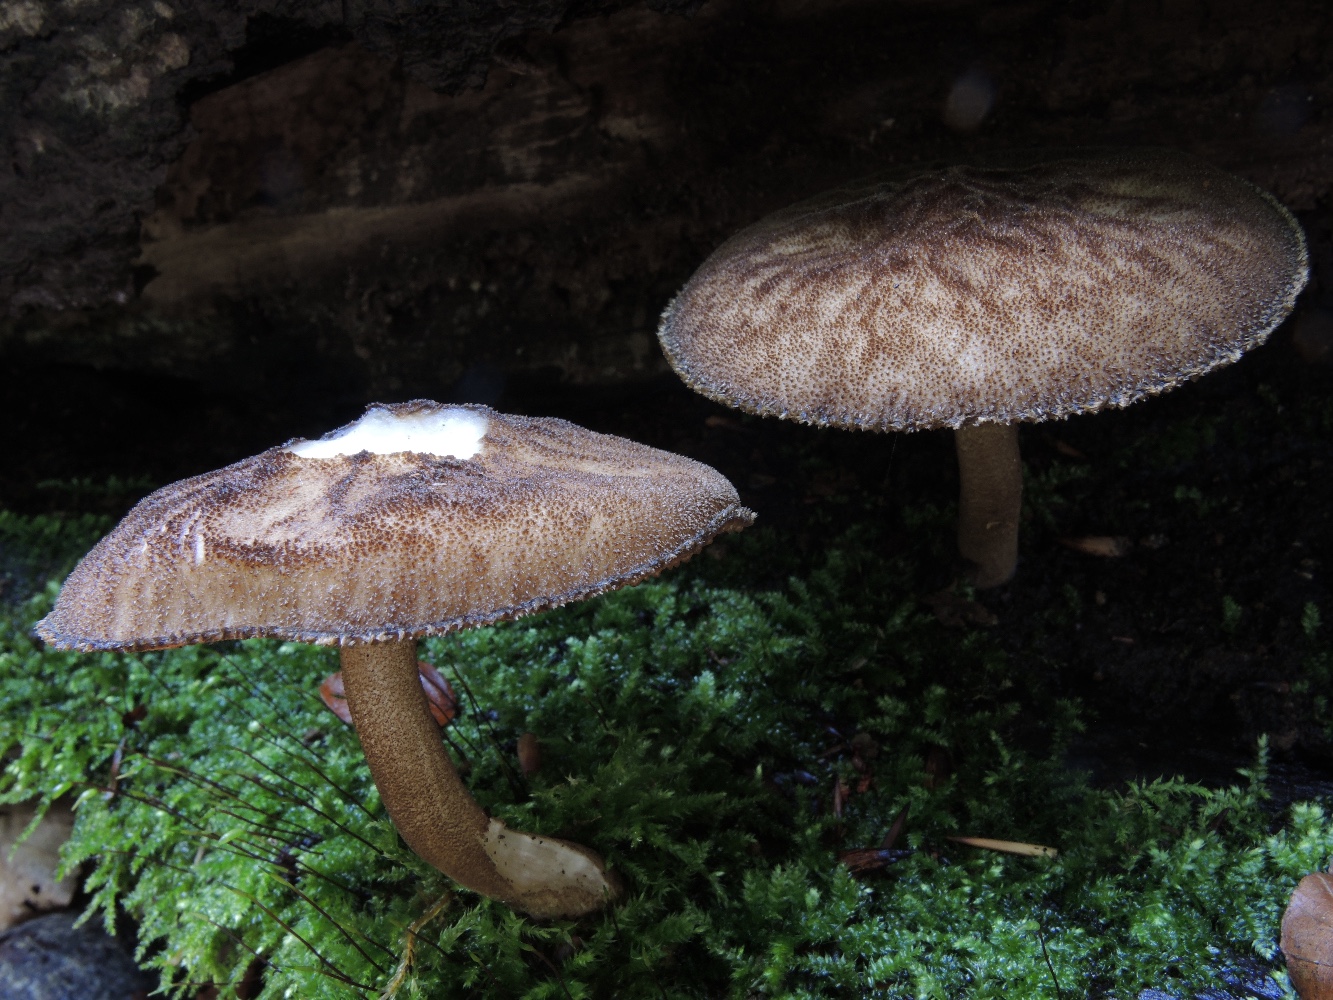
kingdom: Fungi
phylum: Basidiomycota
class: Agaricomycetes
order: Agaricales
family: Pluteaceae
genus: Pluteus
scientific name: Pluteus umbrosus
